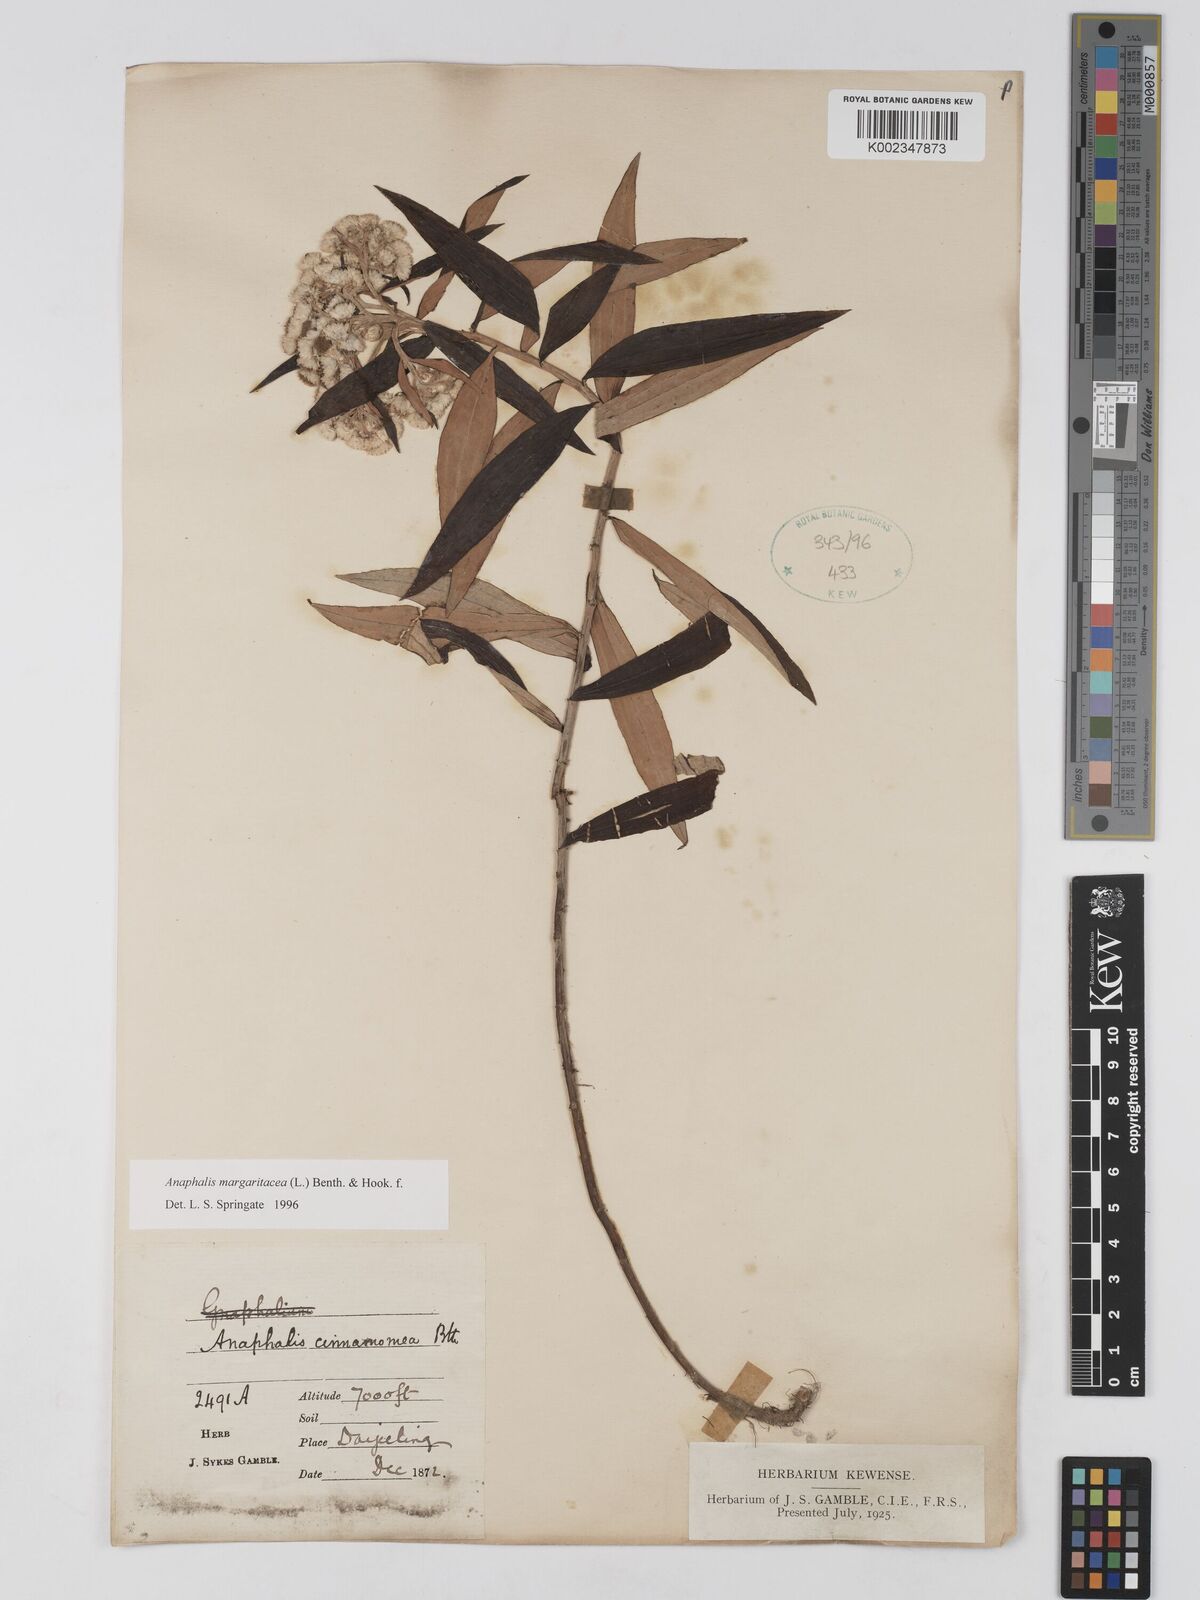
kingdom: Plantae
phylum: Tracheophyta
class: Magnoliopsida
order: Asterales
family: Asteraceae
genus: Anaphalis
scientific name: Anaphalis margaritacea
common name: Pearly everlasting
